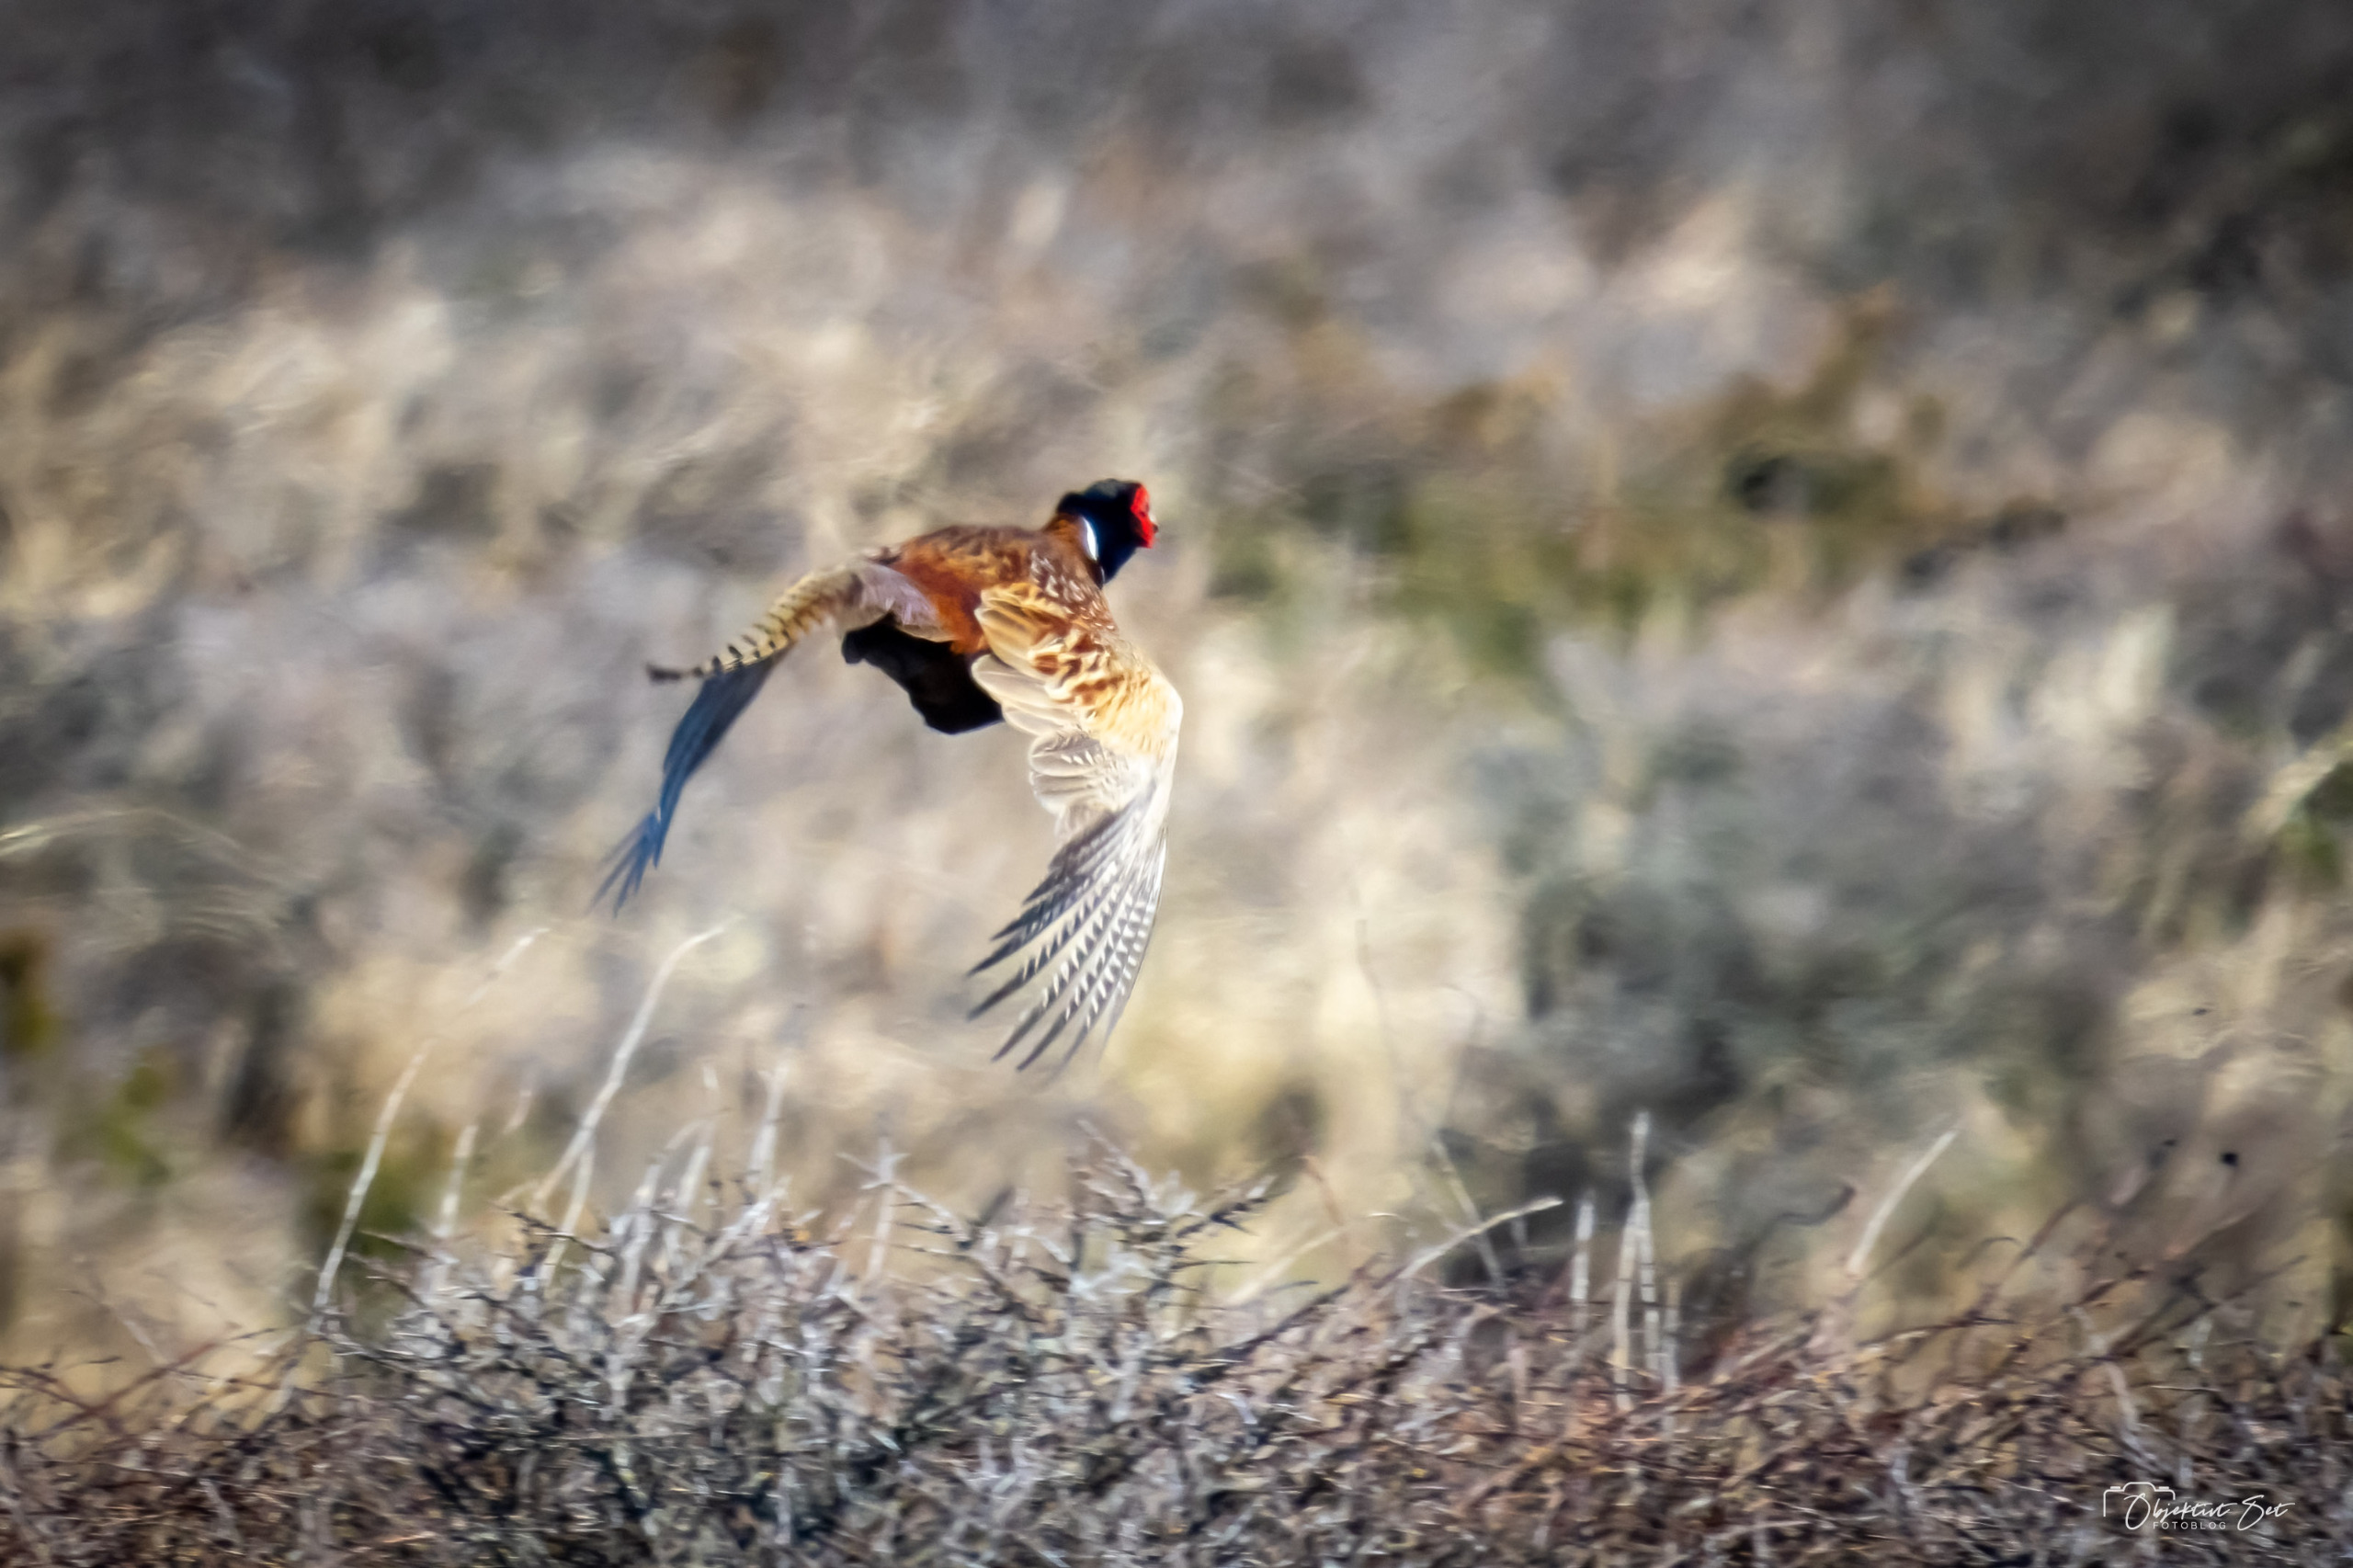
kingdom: Animalia
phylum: Chordata
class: Aves
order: Galliformes
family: Phasianidae
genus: Phasianus
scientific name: Phasianus colchicus
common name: Fasan
